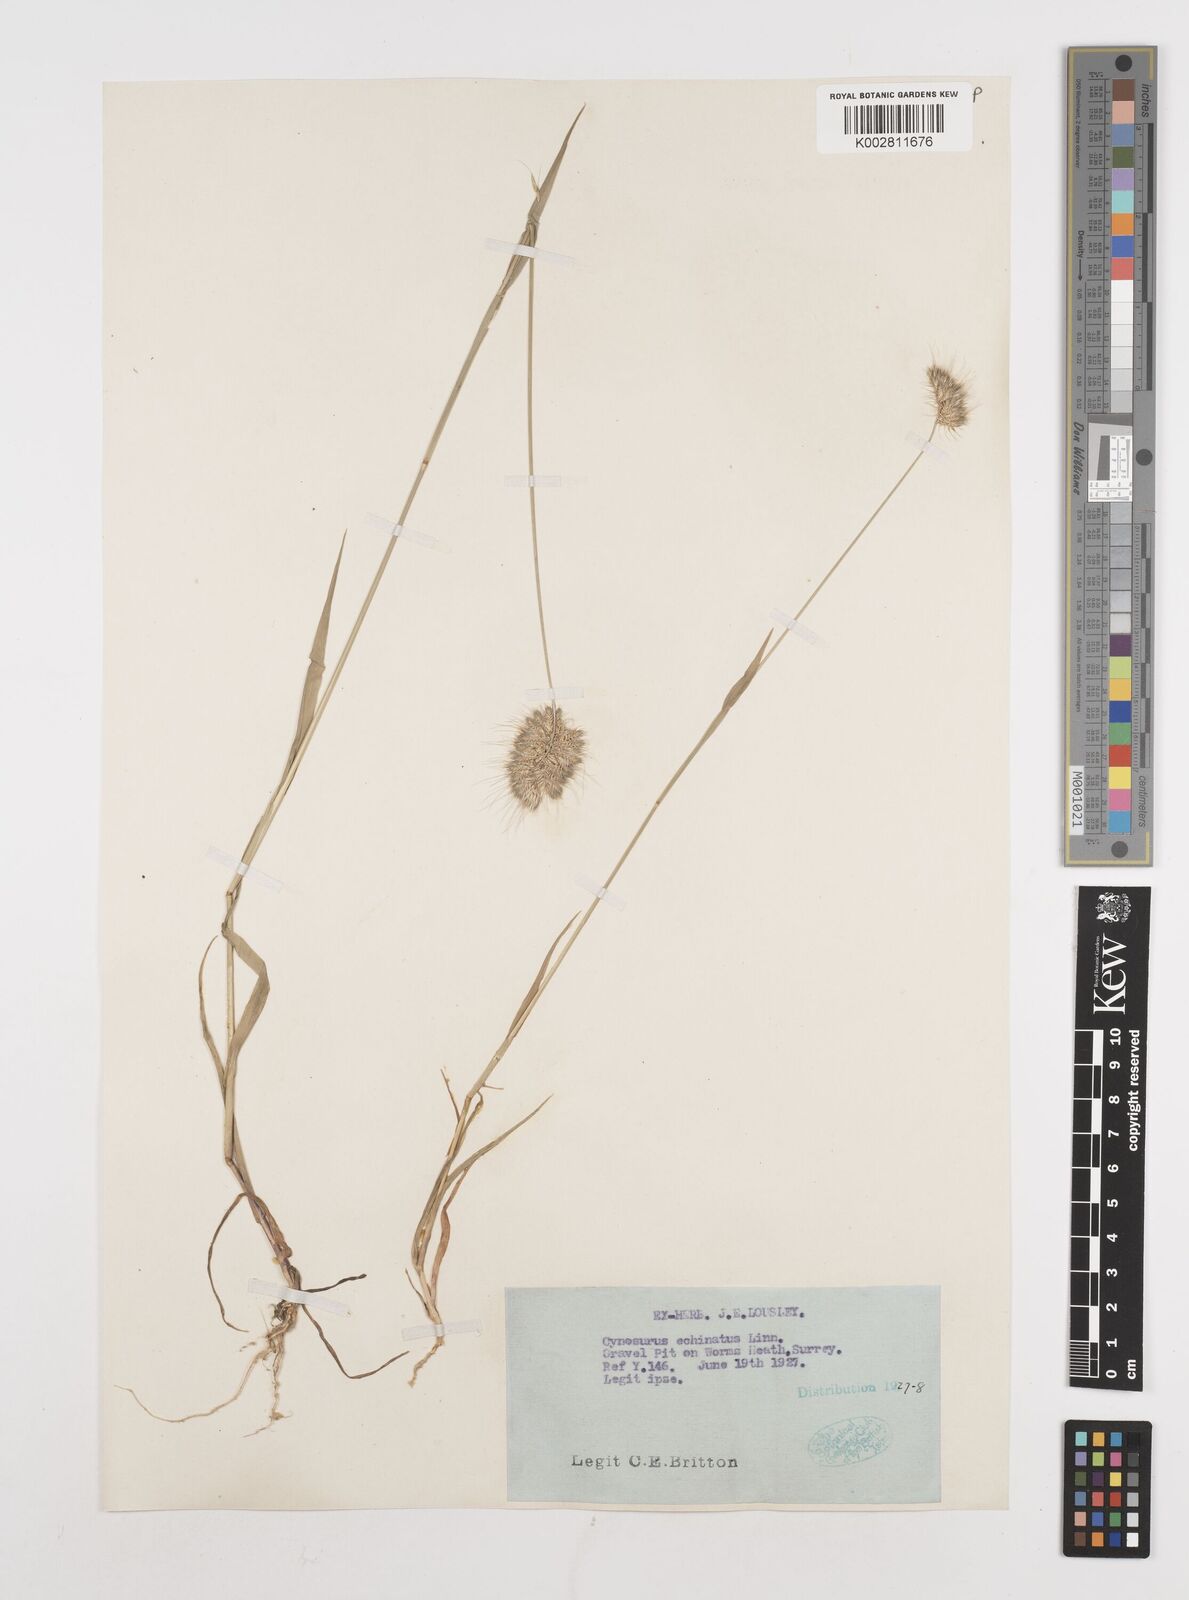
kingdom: Plantae
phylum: Tracheophyta
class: Liliopsida
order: Poales
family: Poaceae
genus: Cynosurus
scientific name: Cynosurus echinatus
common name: Rough dog's-tail
